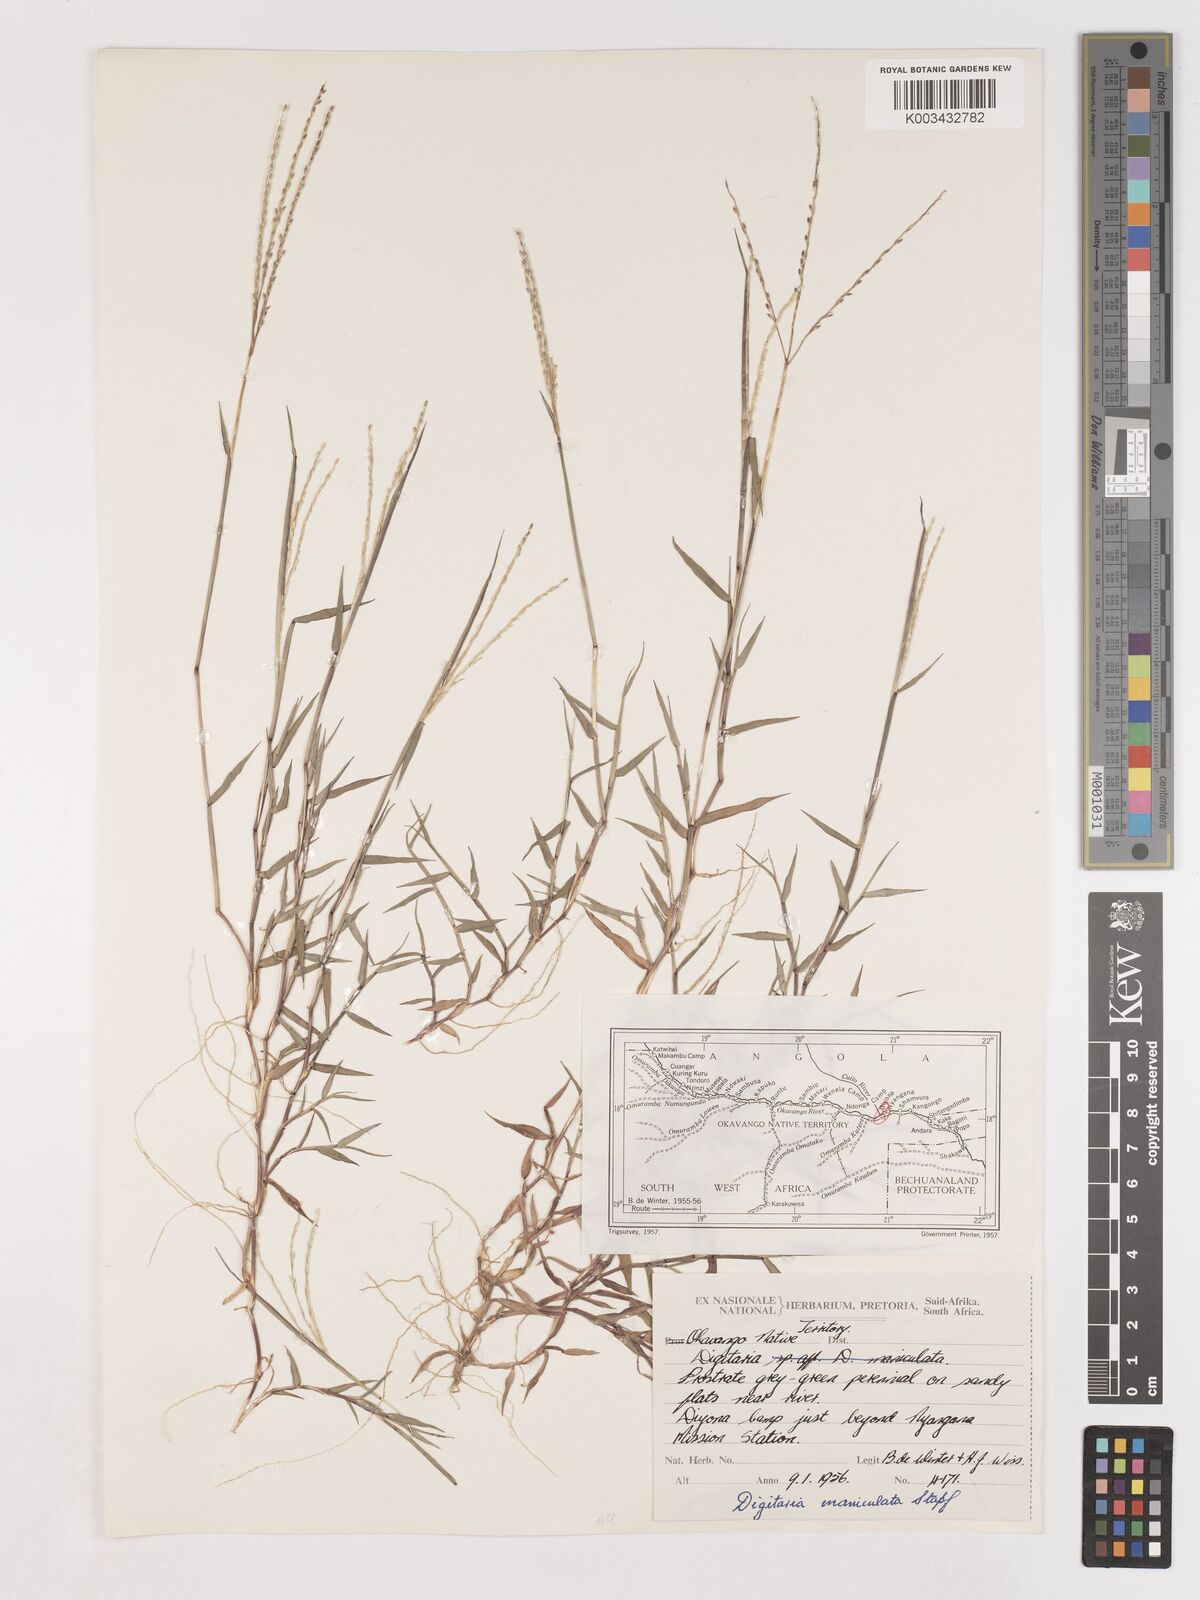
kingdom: Plantae
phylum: Tracheophyta
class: Liliopsida
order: Poales
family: Poaceae
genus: Digitaria
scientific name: Digitaria maniculata
